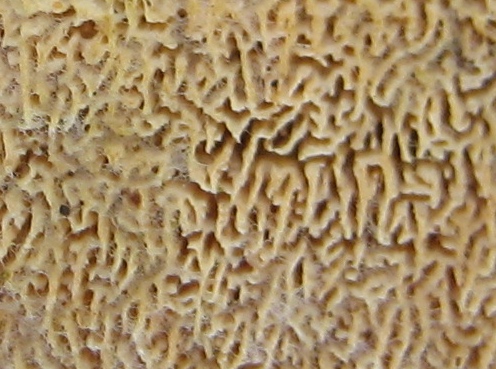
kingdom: Fungi
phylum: Basidiomycota
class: Agaricomycetes
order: Hymenochaetales
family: Schizoporaceae
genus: Xylodon
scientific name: Xylodon subtropicus
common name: labyrint-tandsvamp
